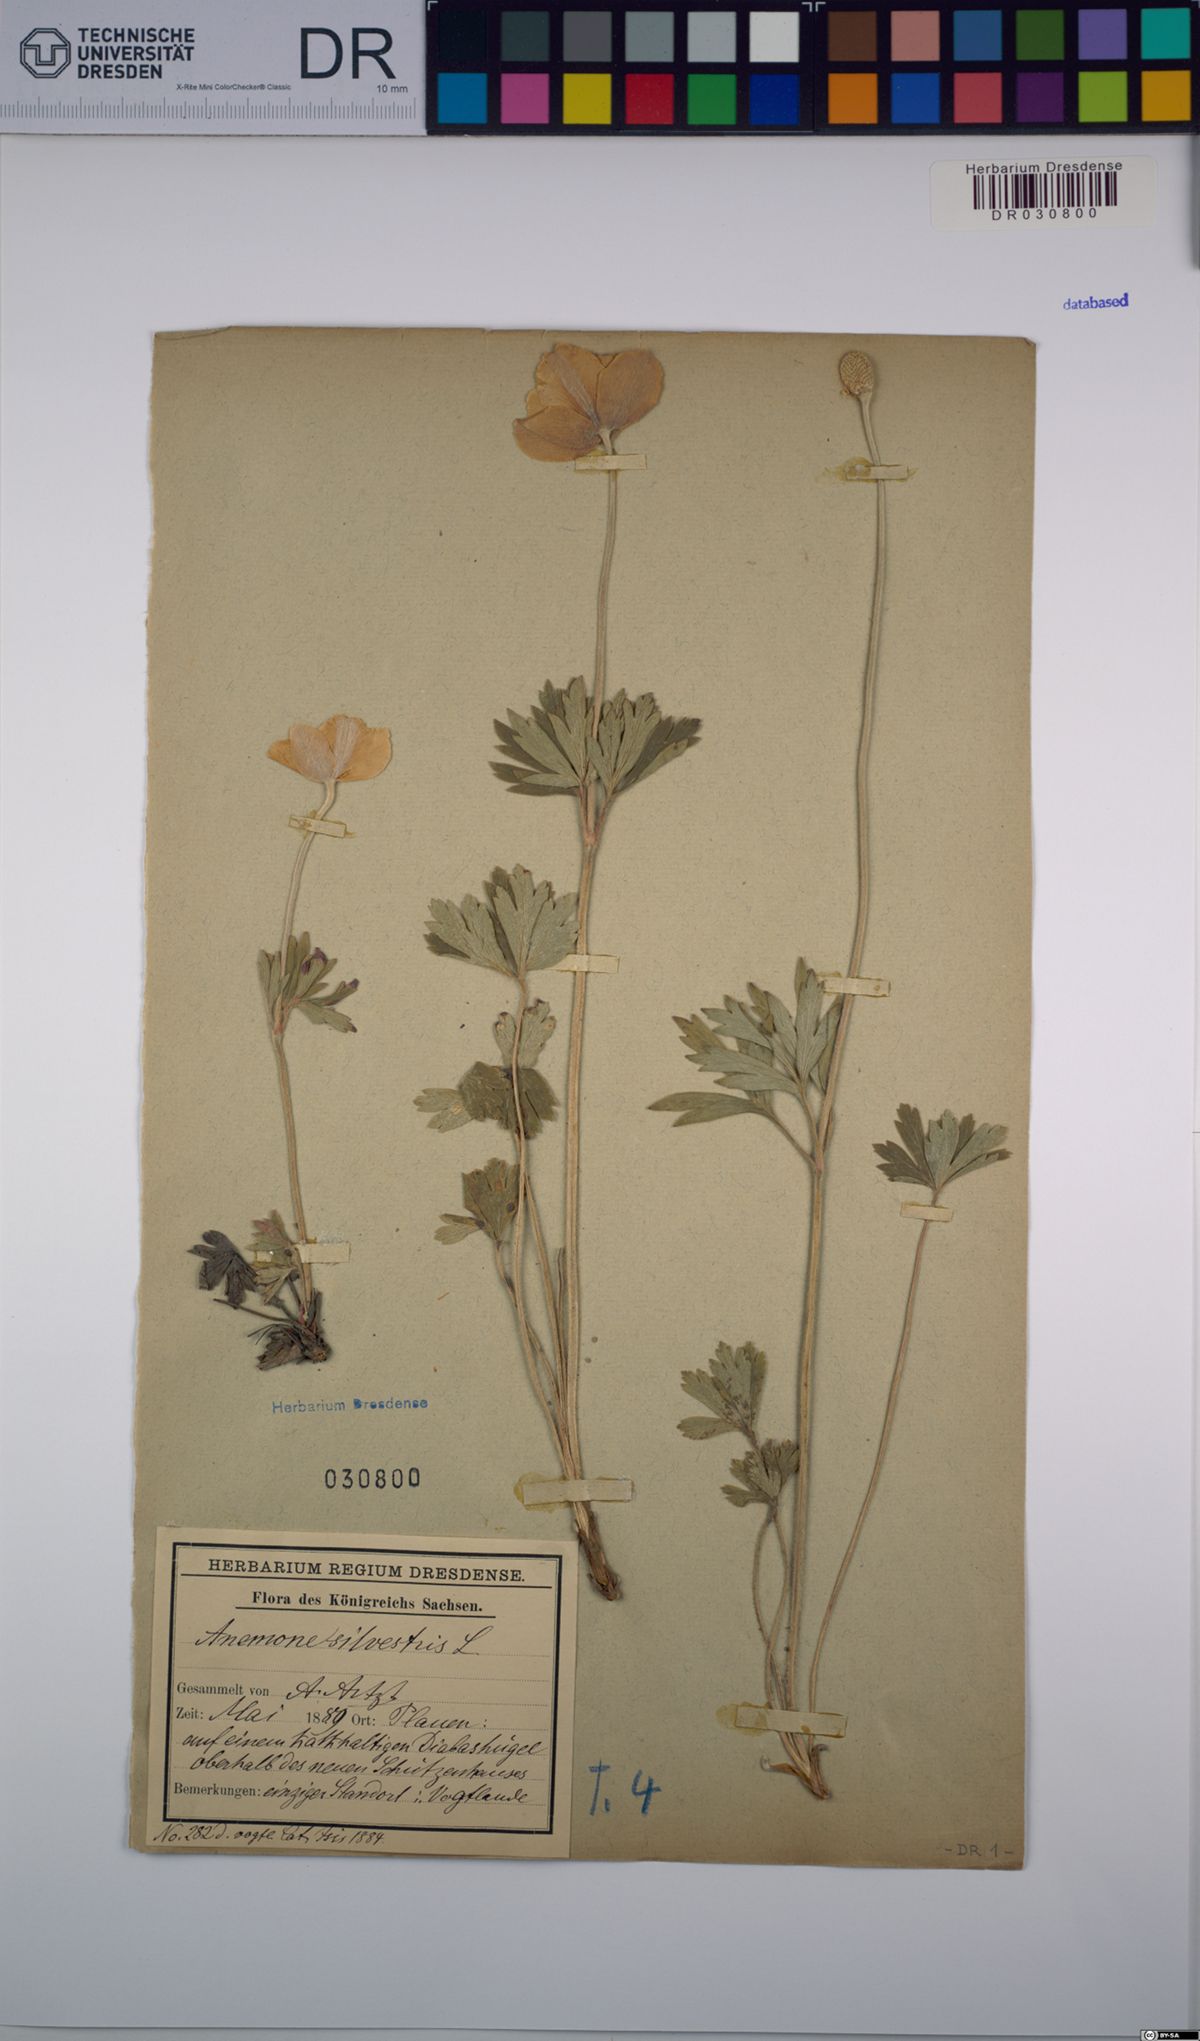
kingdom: Plantae
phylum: Tracheophyta
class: Magnoliopsida
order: Ranunculales
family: Ranunculaceae
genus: Anemone
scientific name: Anemone sylvestris
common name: Snowdrop anemone
